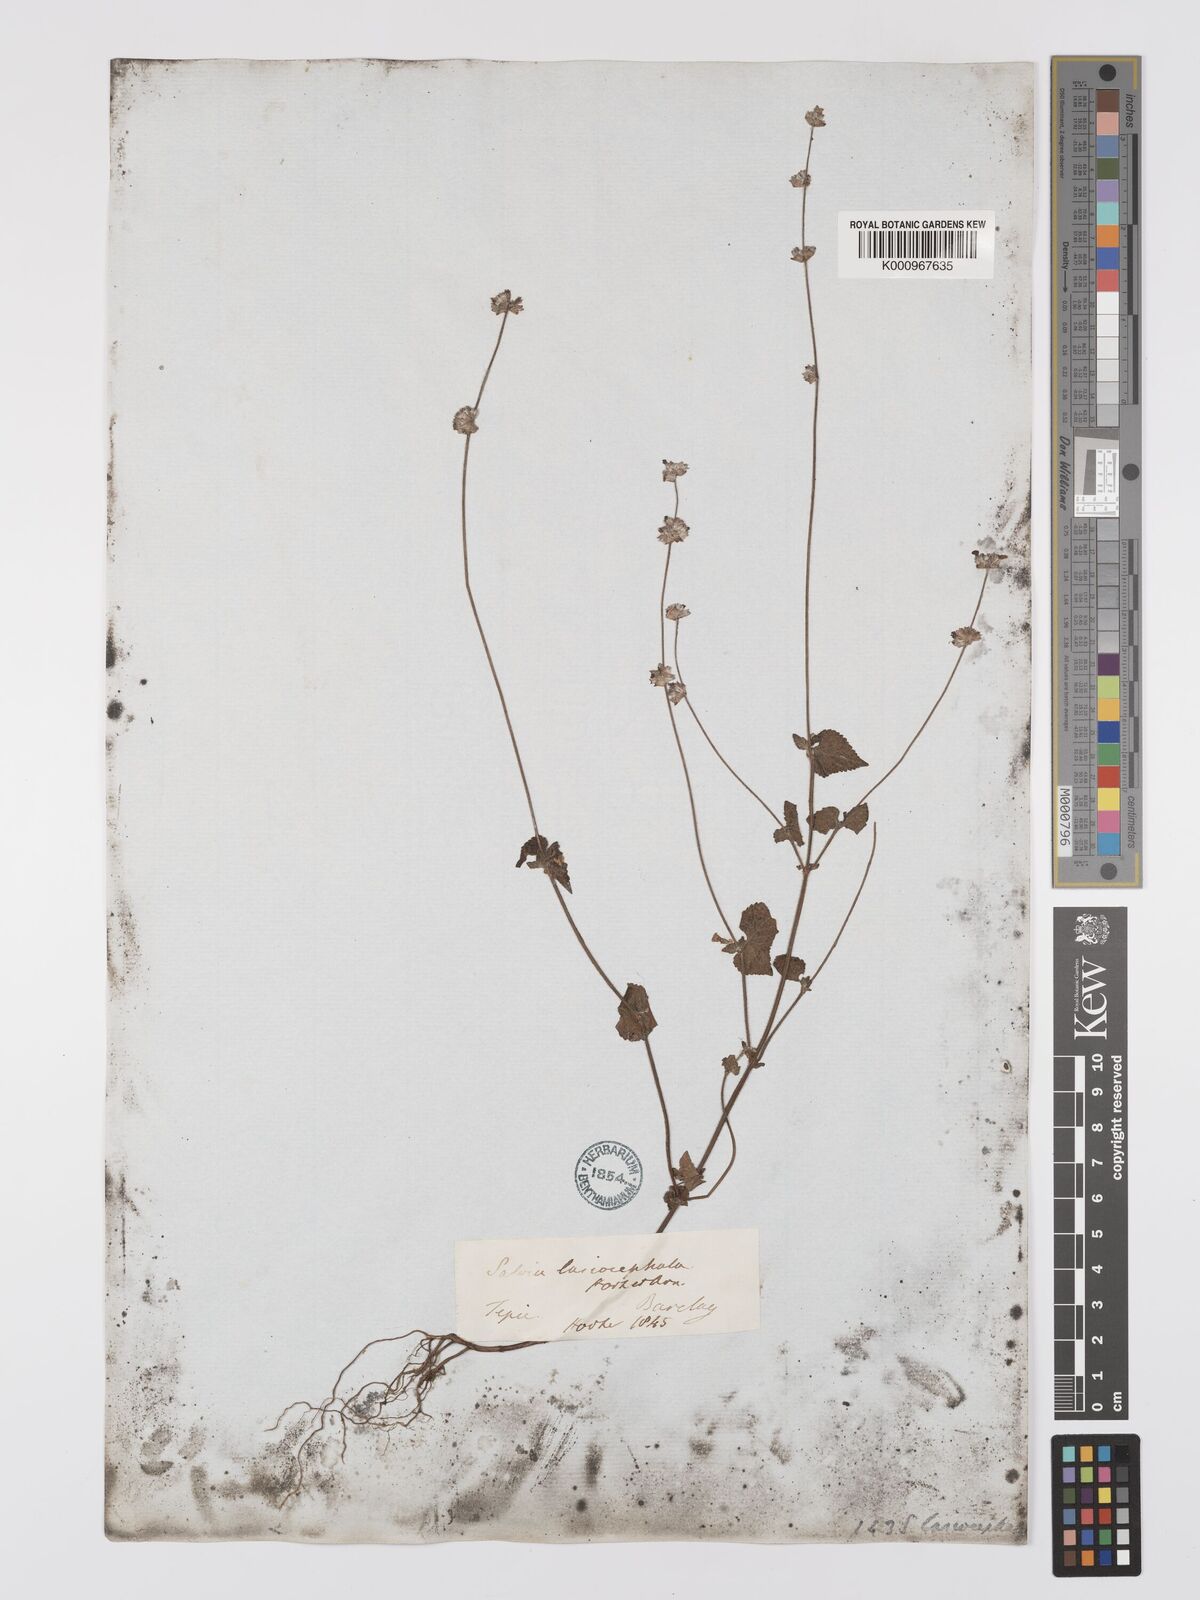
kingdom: Plantae
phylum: Tracheophyta
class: Magnoliopsida
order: Lamiales
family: Lamiaceae
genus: Salvia
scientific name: Salvia lasiocephala
